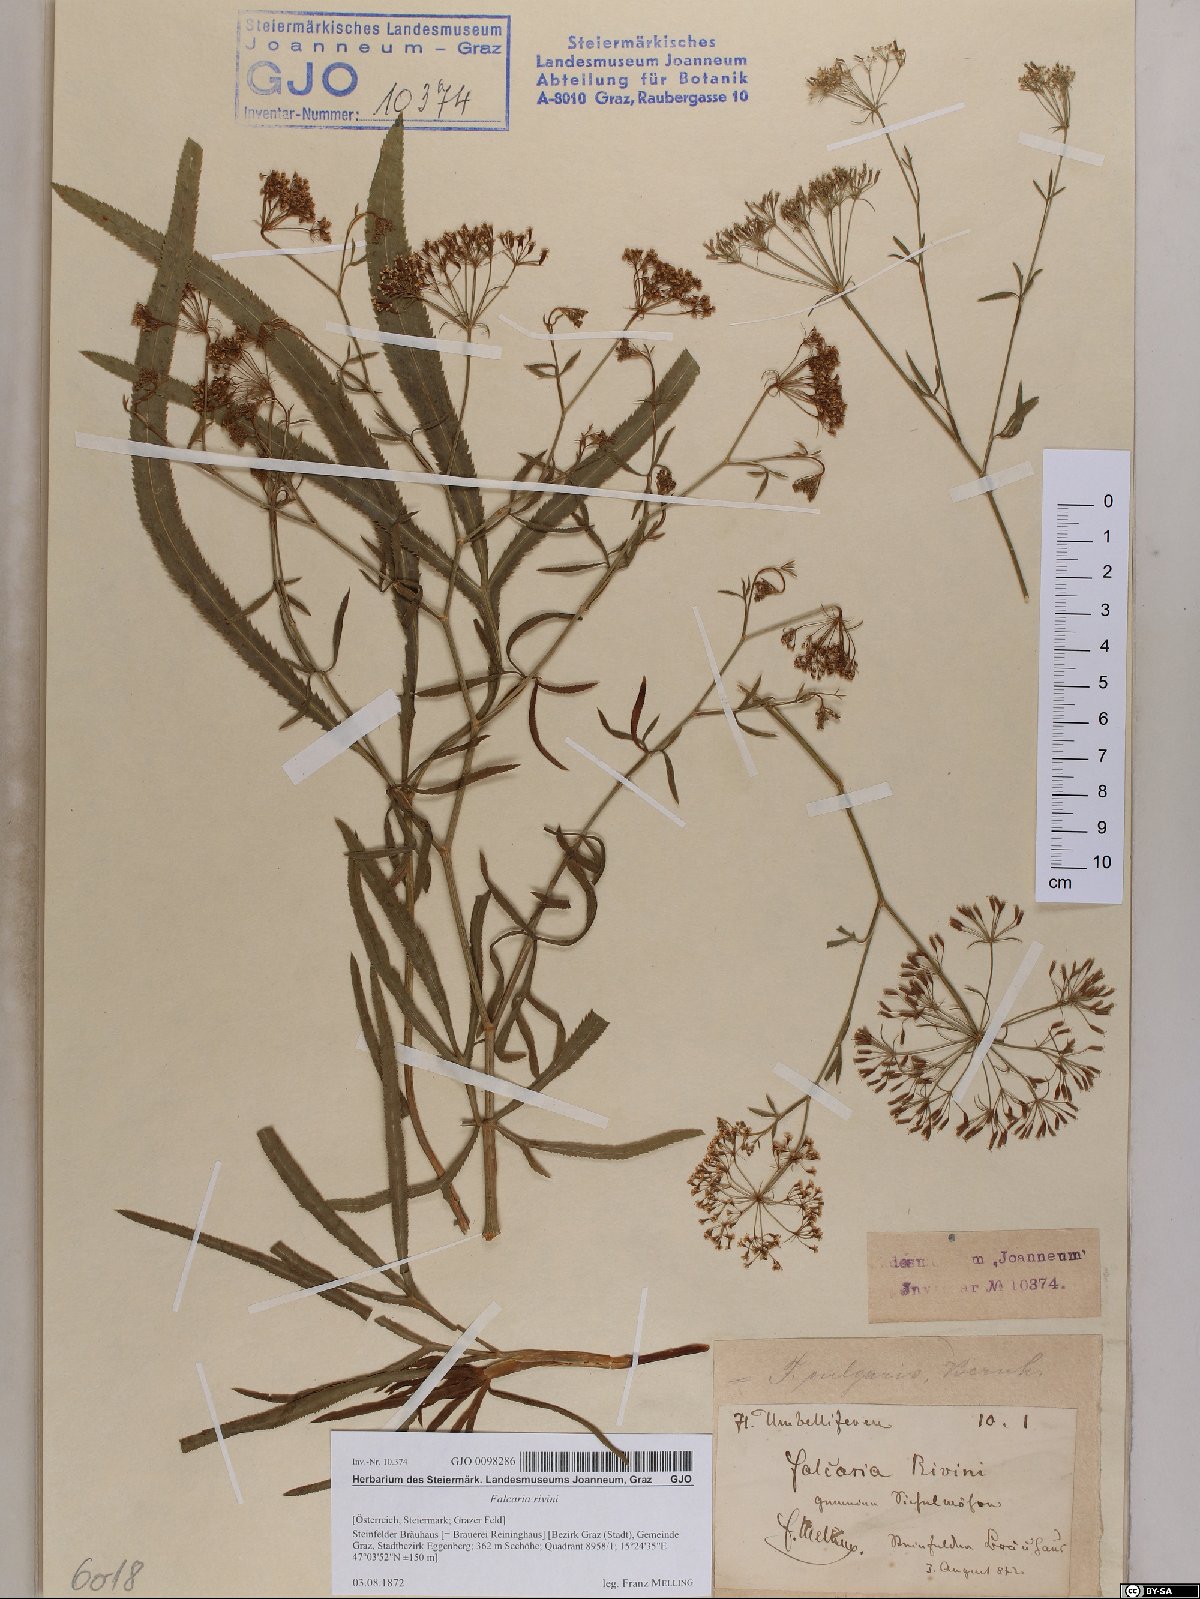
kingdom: Plantae
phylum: Tracheophyta
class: Magnoliopsida
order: Apiales
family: Apiaceae
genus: Falcaria
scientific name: Falcaria vulgaris
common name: Longleaf
